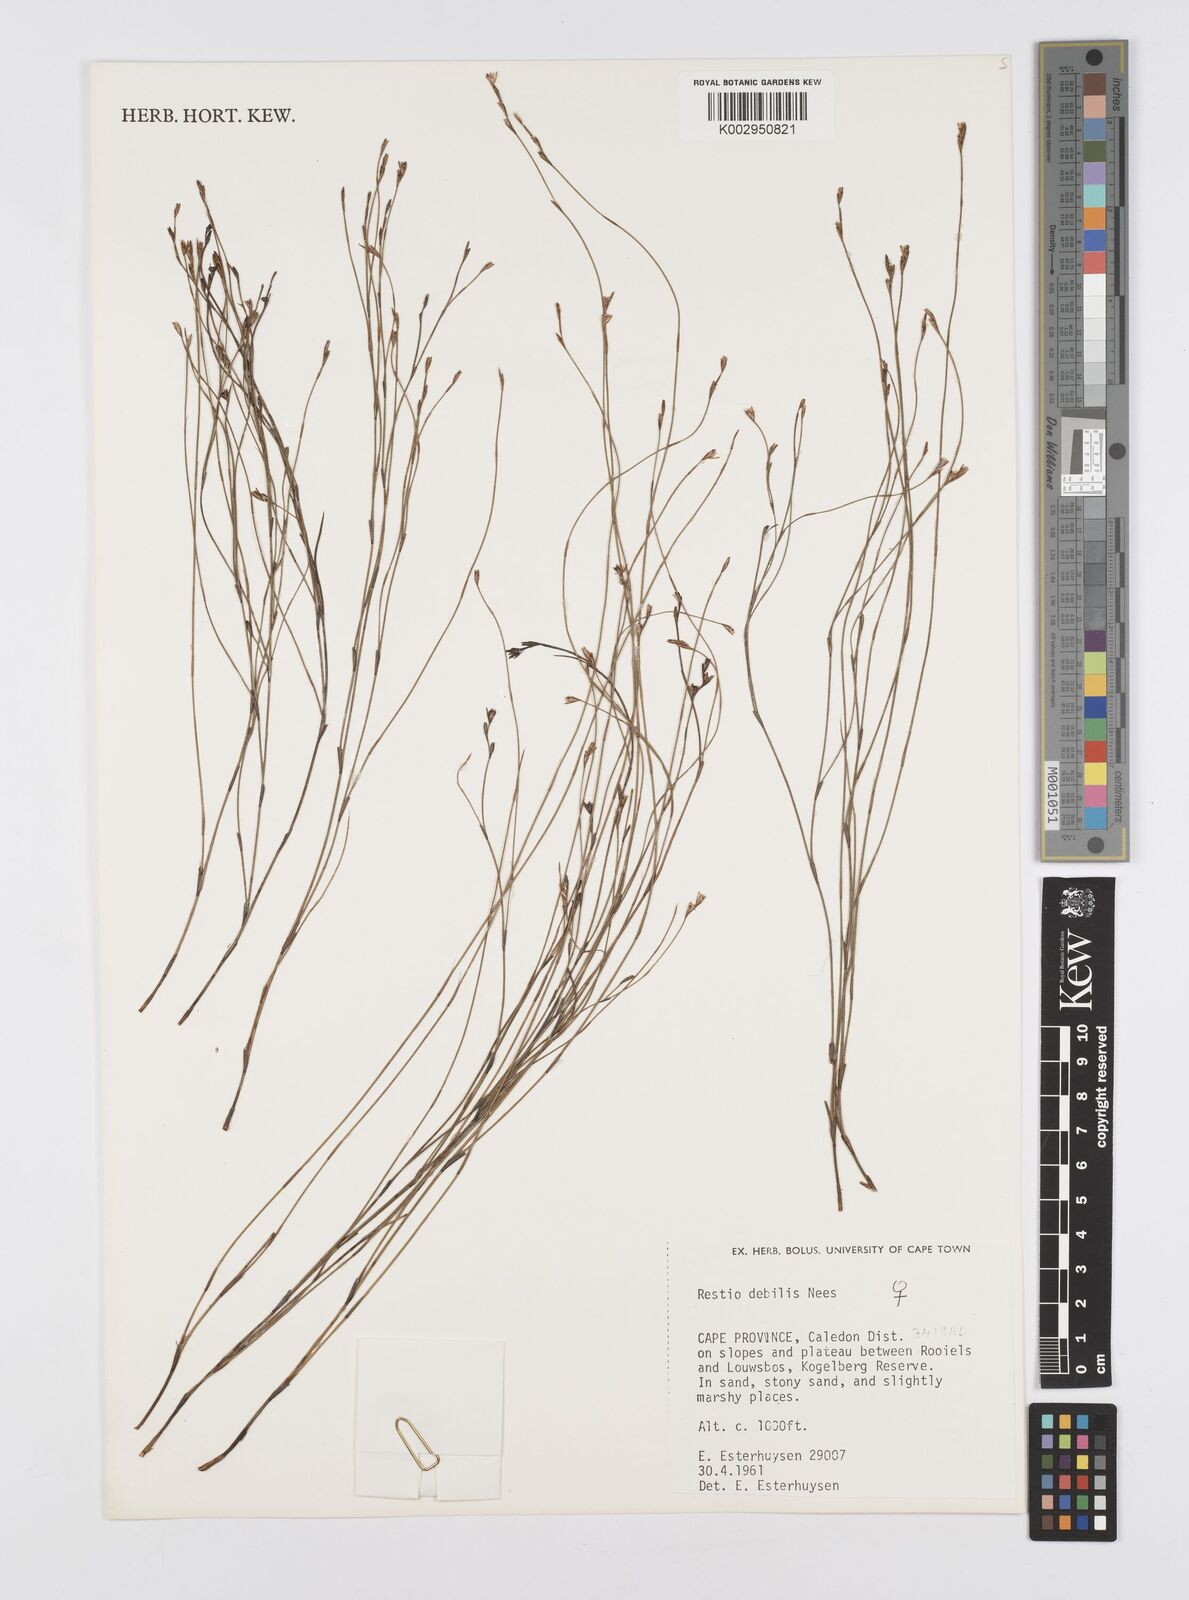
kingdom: Plantae
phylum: Tracheophyta
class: Liliopsida
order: Poales
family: Restionaceae
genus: Restio
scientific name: Restio debilis
